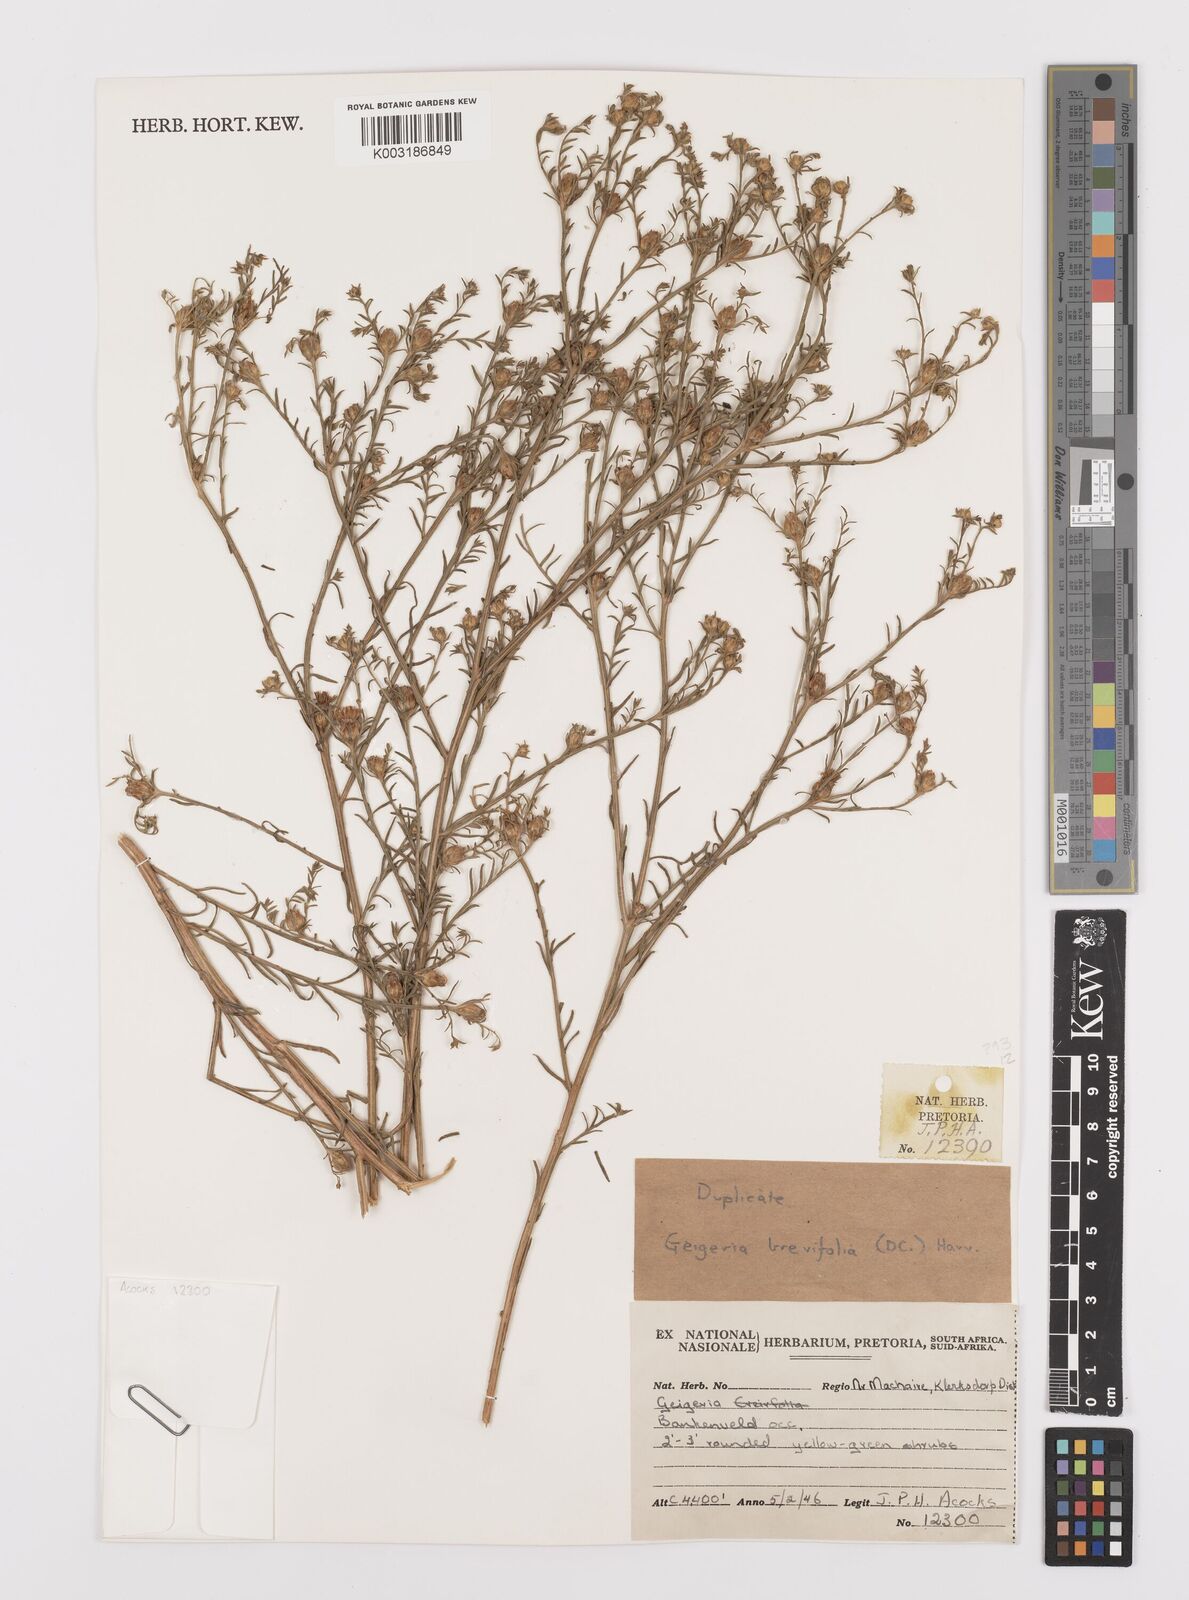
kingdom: Plantae
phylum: Tracheophyta
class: Magnoliopsida
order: Asterales
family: Asteraceae
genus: Geigeria
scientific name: Geigeria brevifolia
